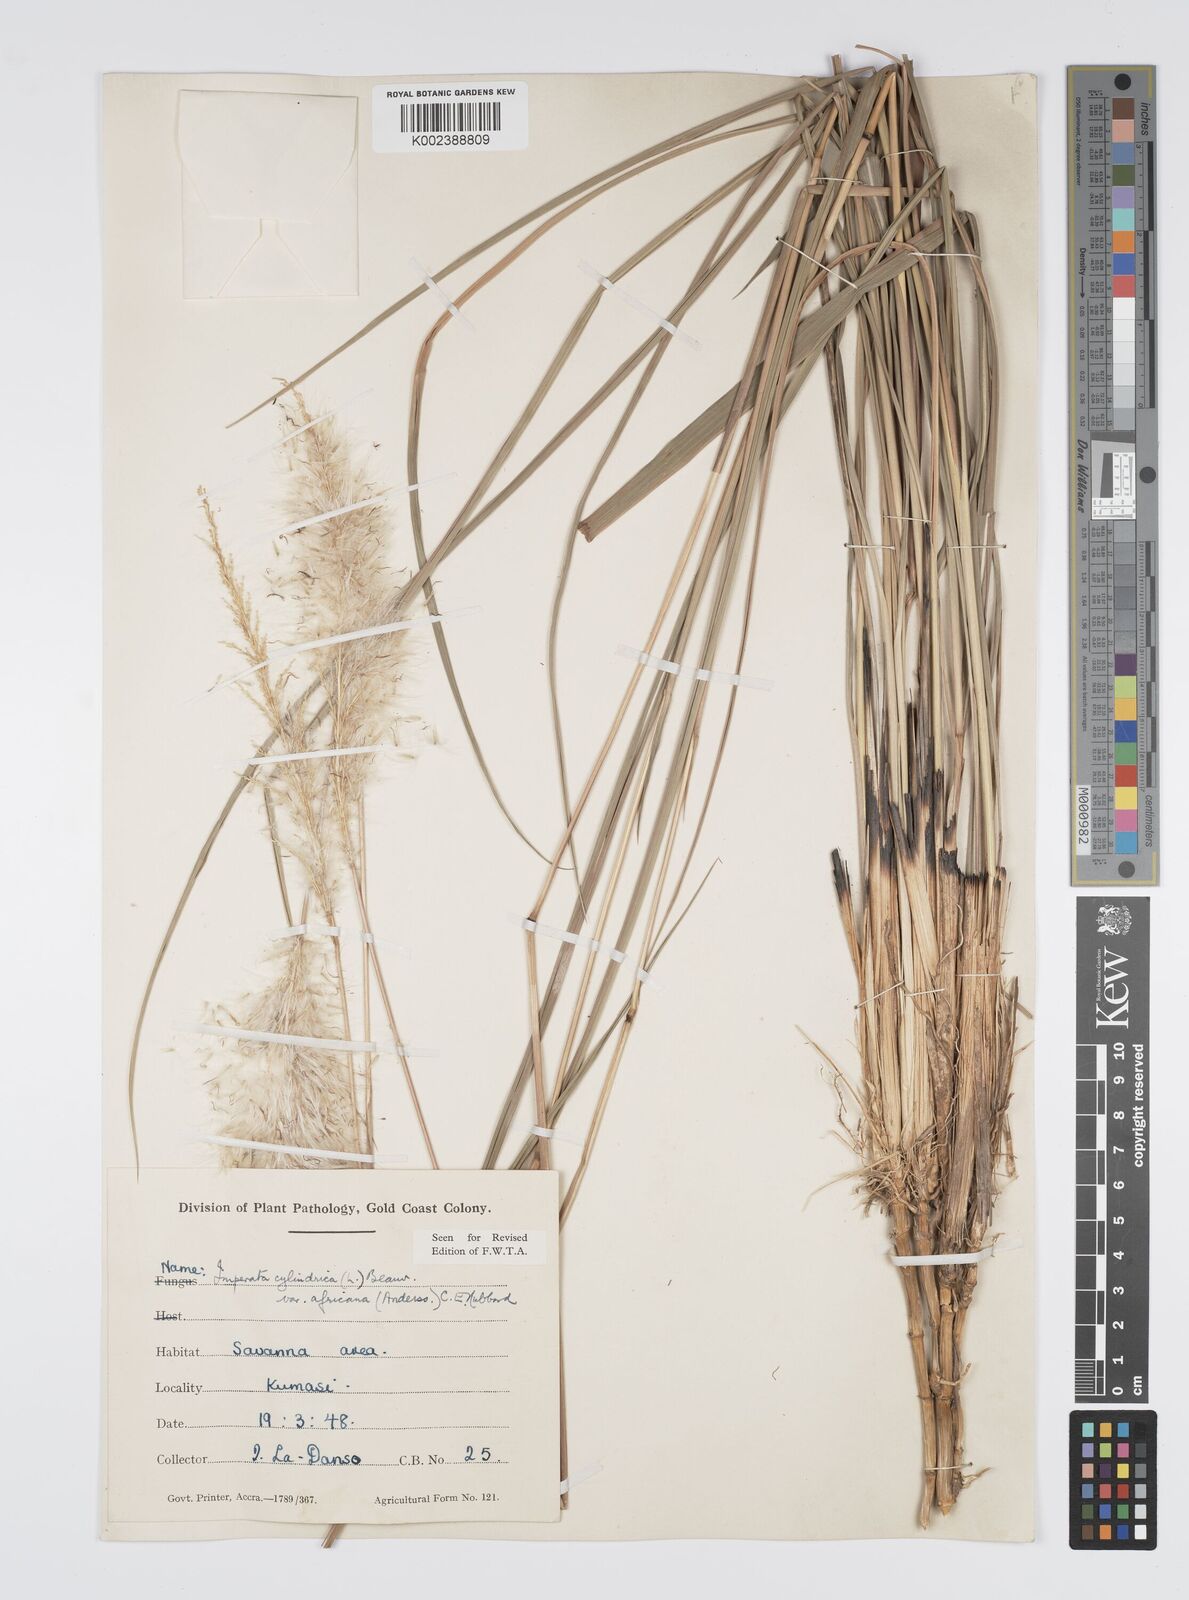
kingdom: Plantae
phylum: Tracheophyta
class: Liliopsida
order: Poales
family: Poaceae
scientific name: Poaceae
